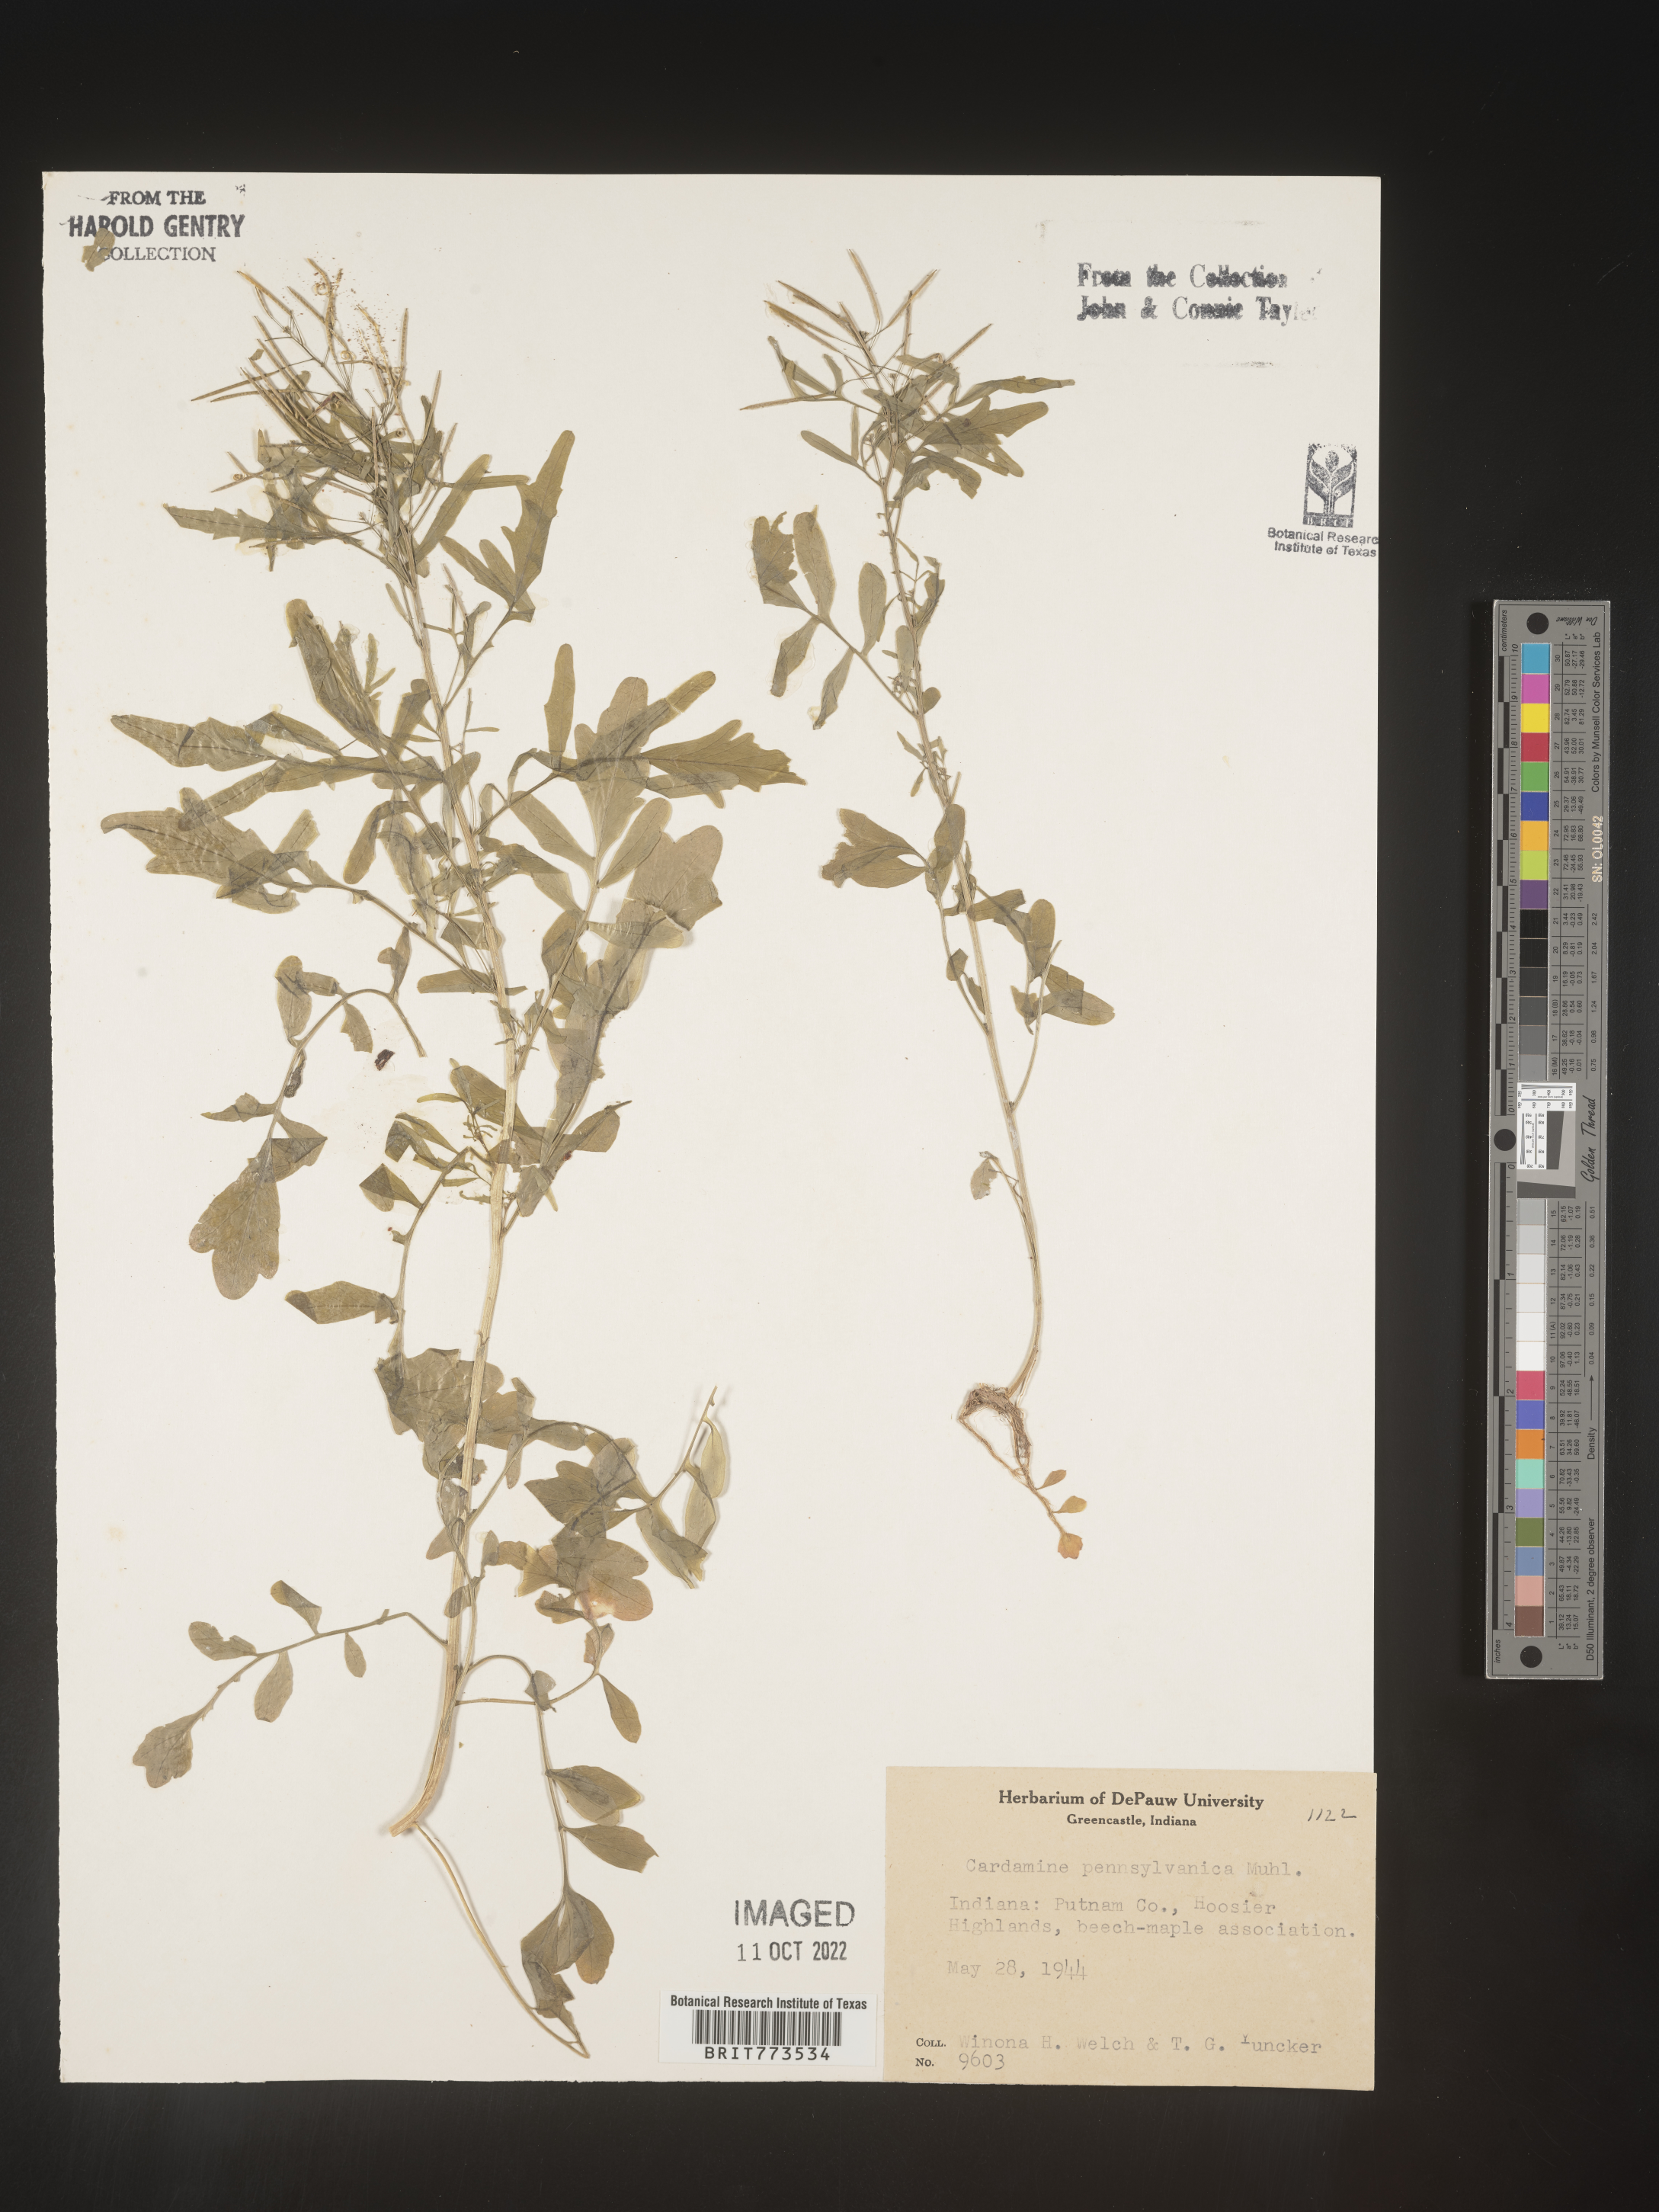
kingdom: Plantae
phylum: Tracheophyta
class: Magnoliopsida
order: Brassicales
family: Brassicaceae
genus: Cardamine
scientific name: Cardamine pensylvanica
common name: Pennsylvania bittercress
